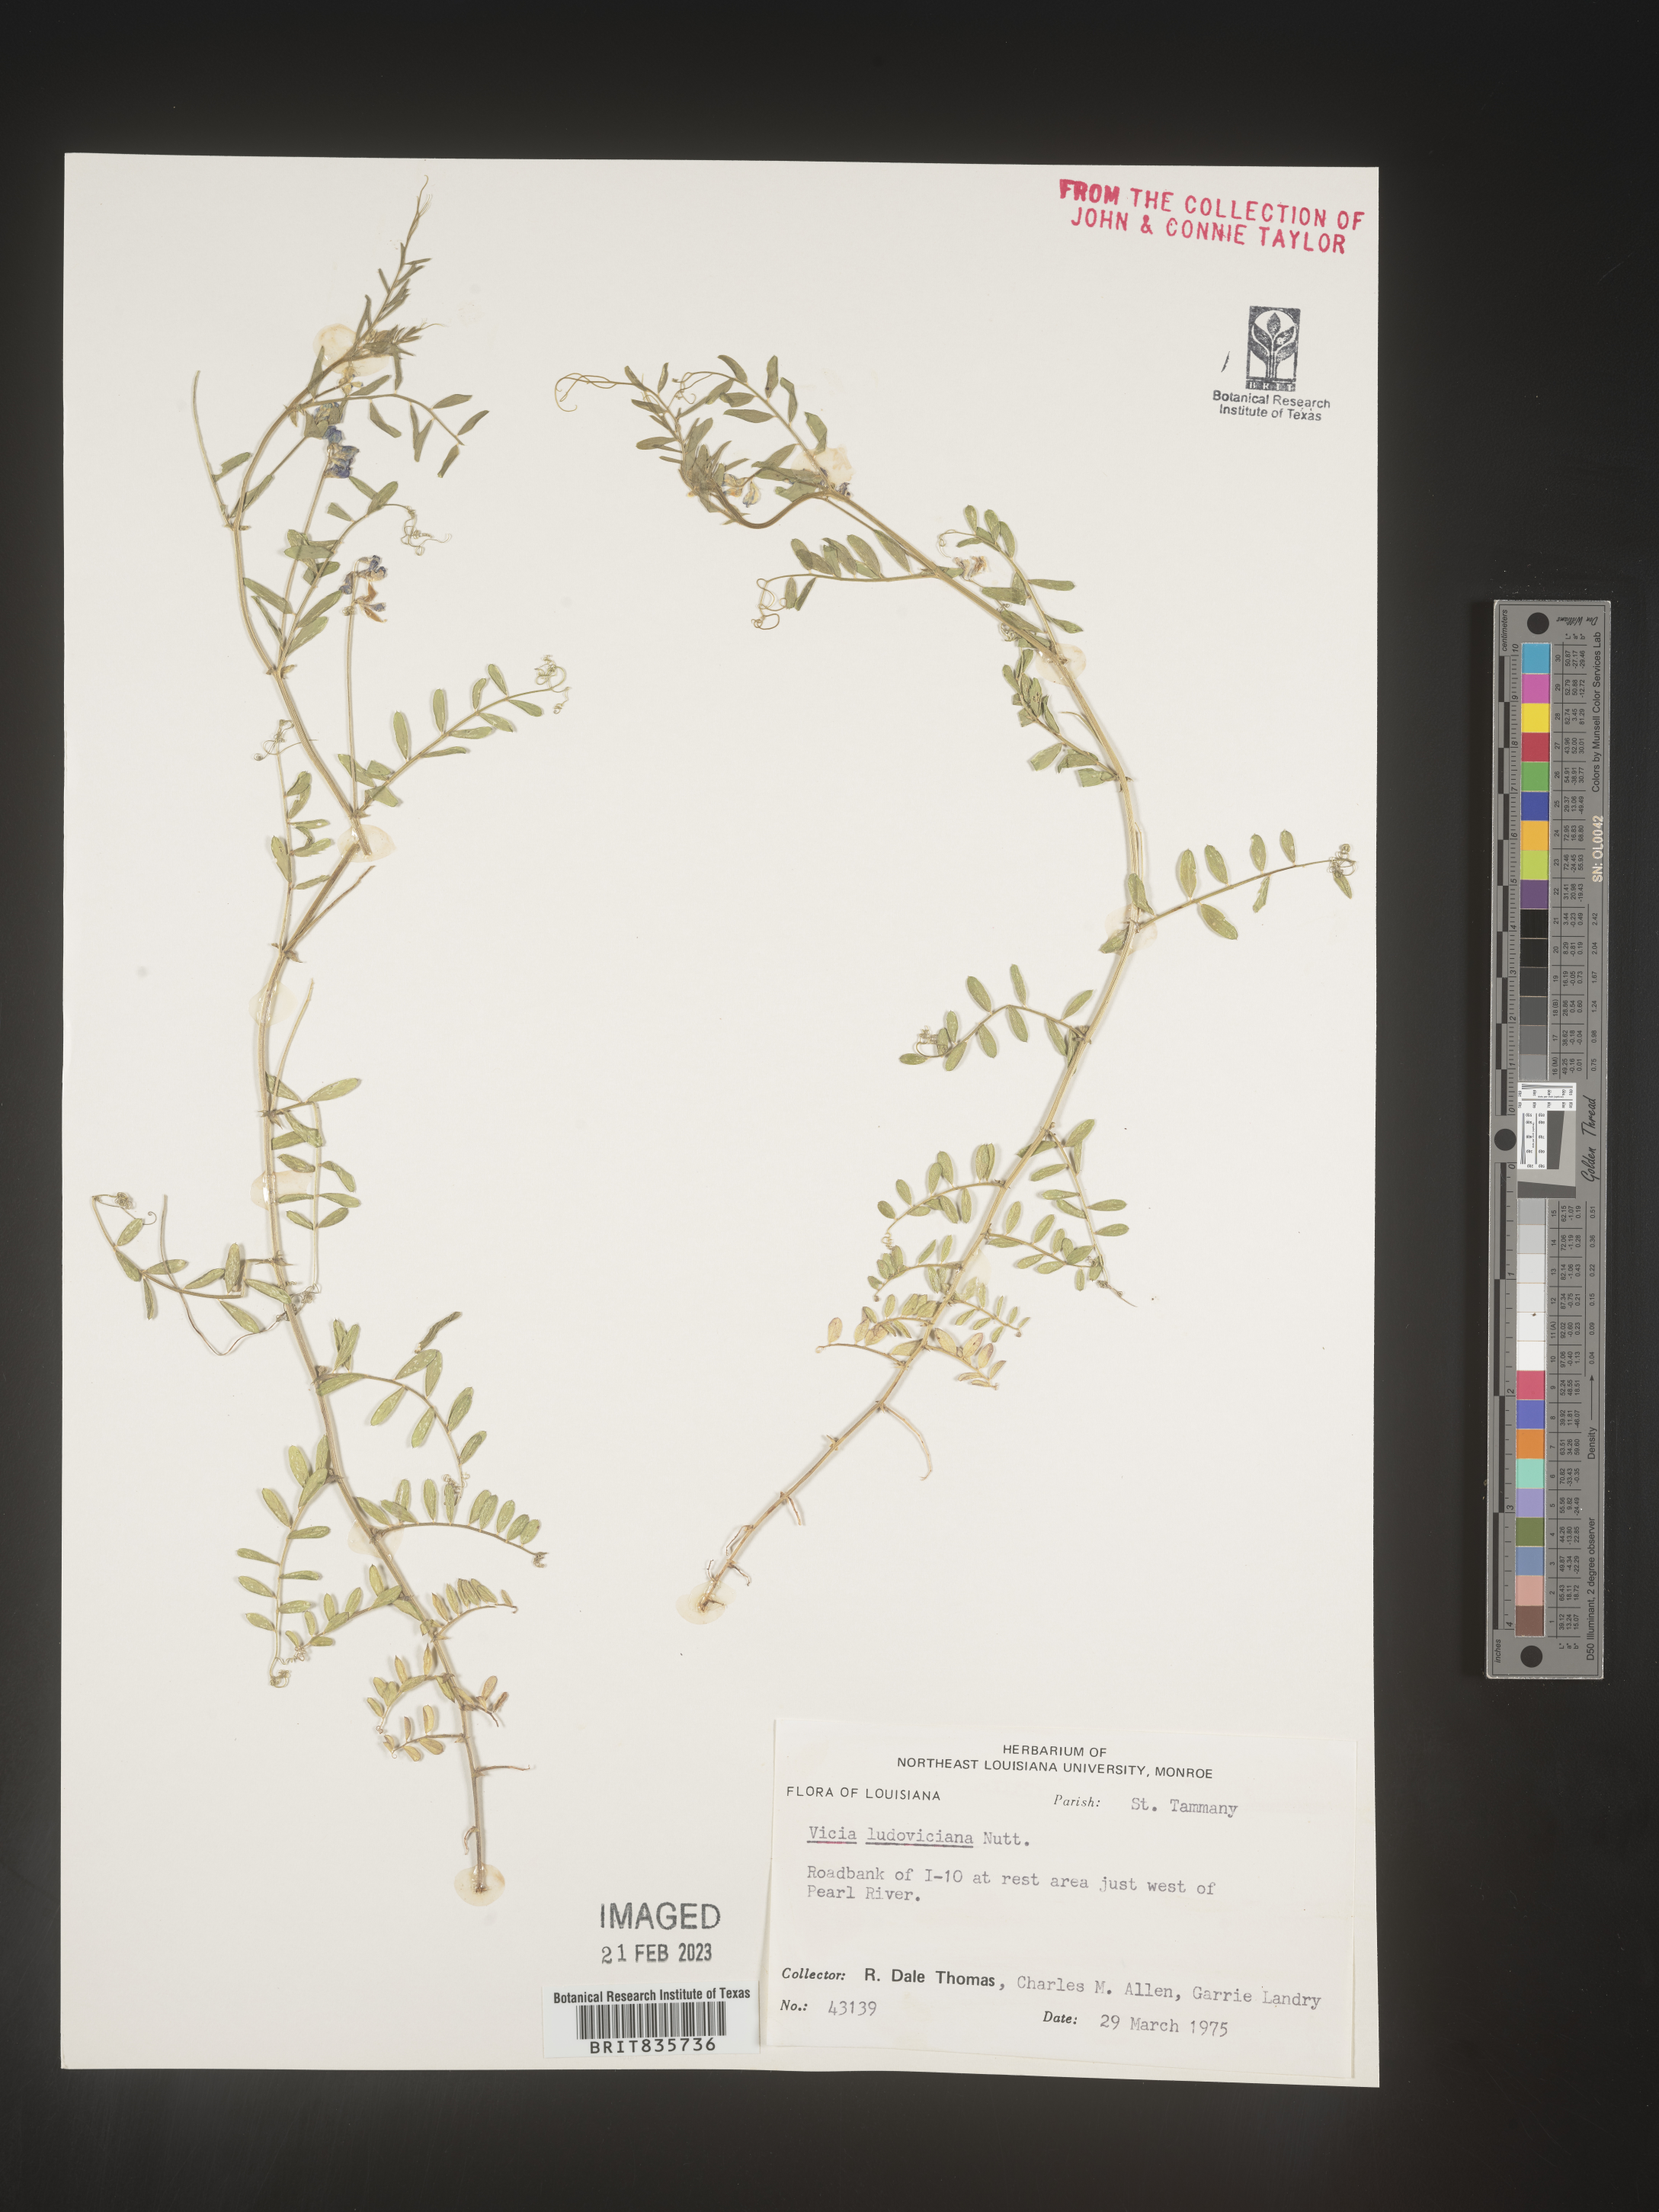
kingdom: Plantae
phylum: Tracheophyta
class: Magnoliopsida
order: Fabales
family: Fabaceae
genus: Vicia
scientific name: Vicia ludoviciana
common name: Louisiana vetch
